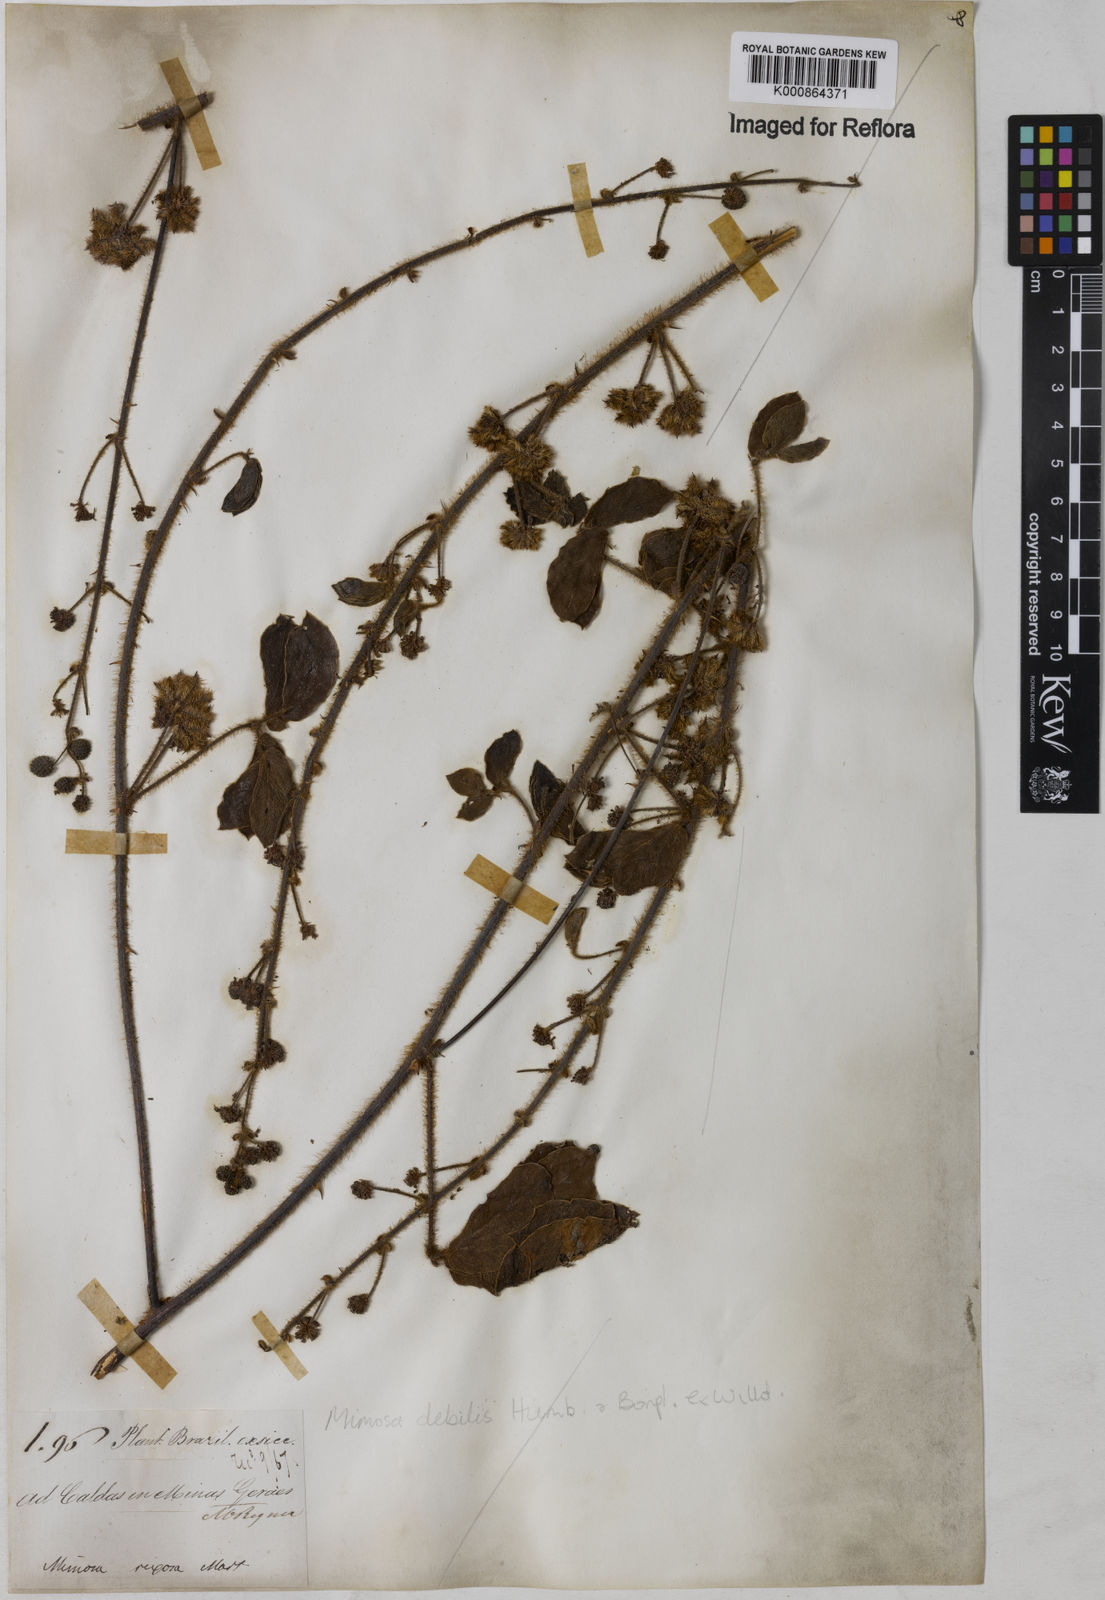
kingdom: Plantae
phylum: Tracheophyta
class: Magnoliopsida
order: Fabales
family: Fabaceae
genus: Mimosa
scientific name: Mimosa
